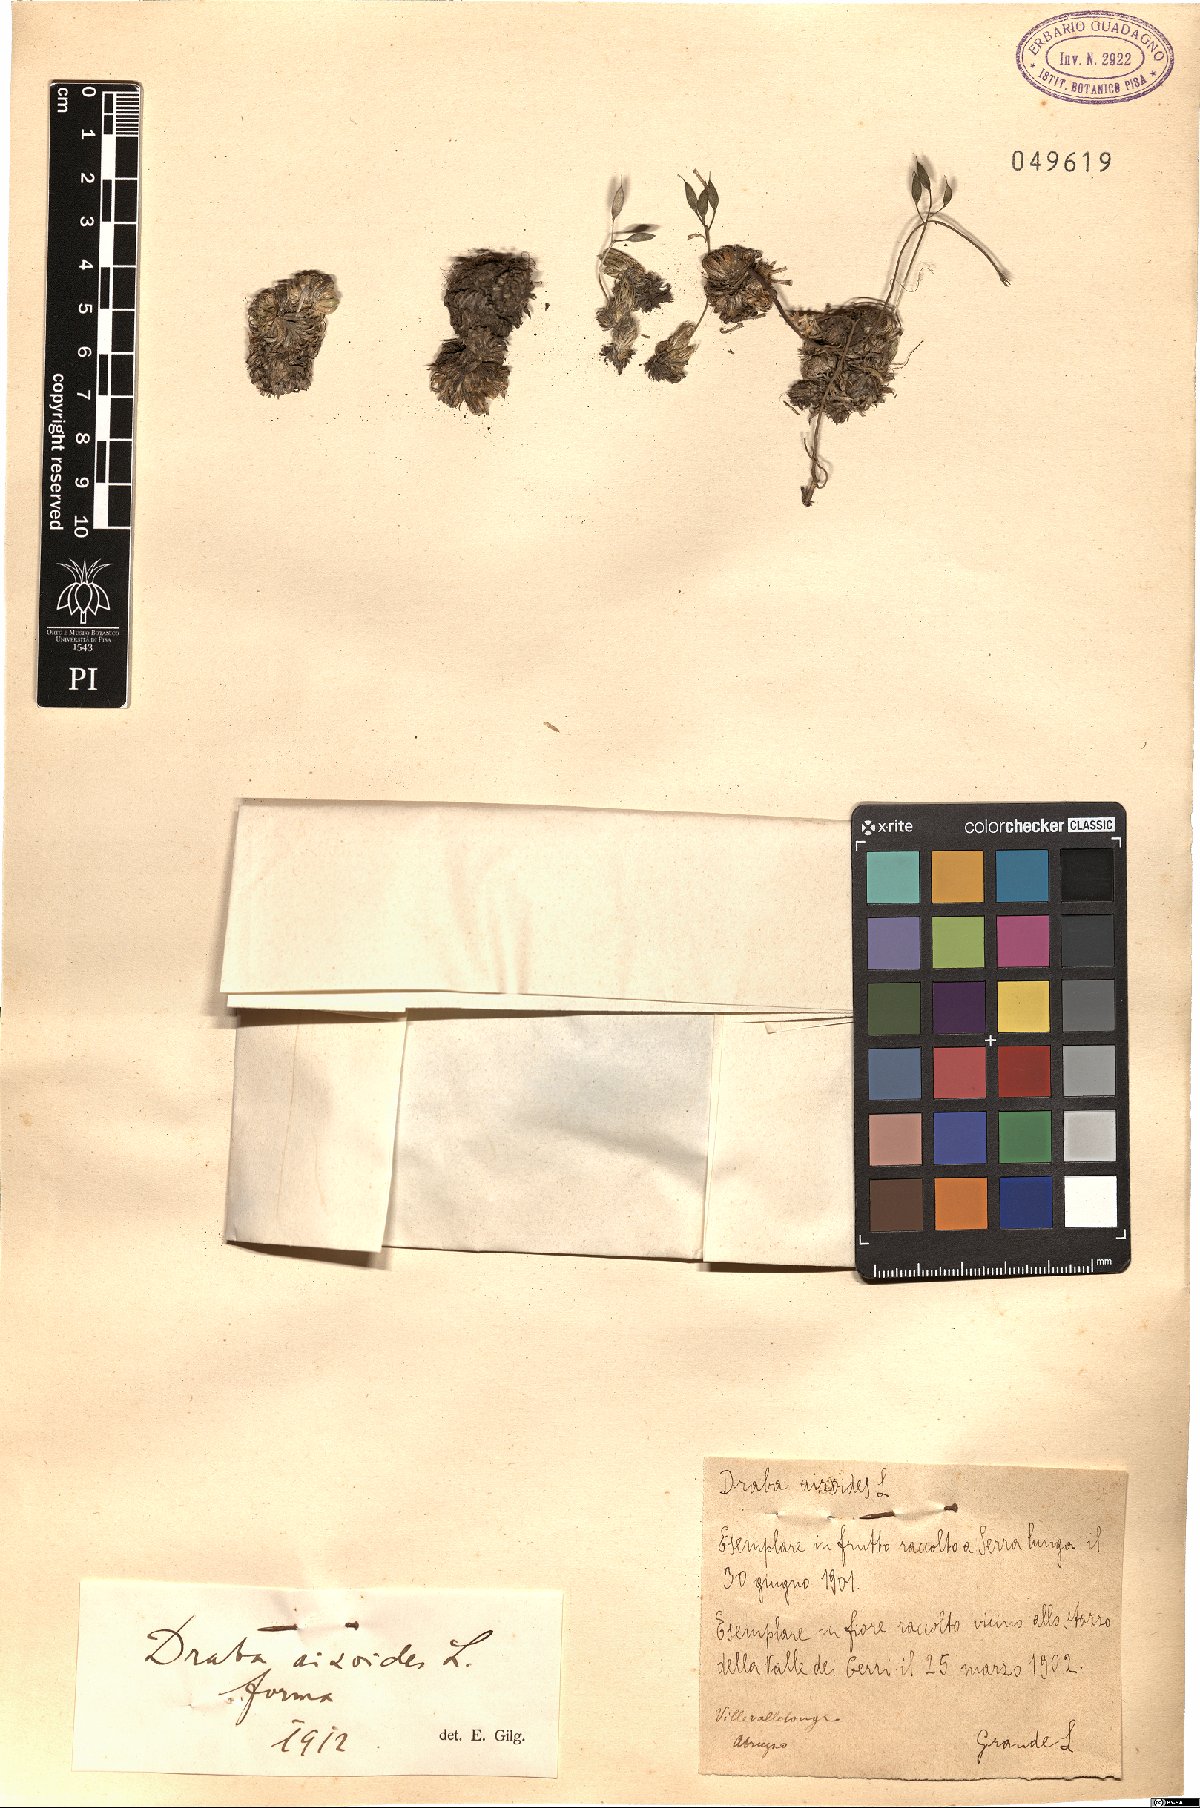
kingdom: Plantae
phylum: Tracheophyta
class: Magnoliopsida
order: Brassicales
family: Brassicaceae
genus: Draba
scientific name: Draba aizoides
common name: Yellow whitlowgrass
